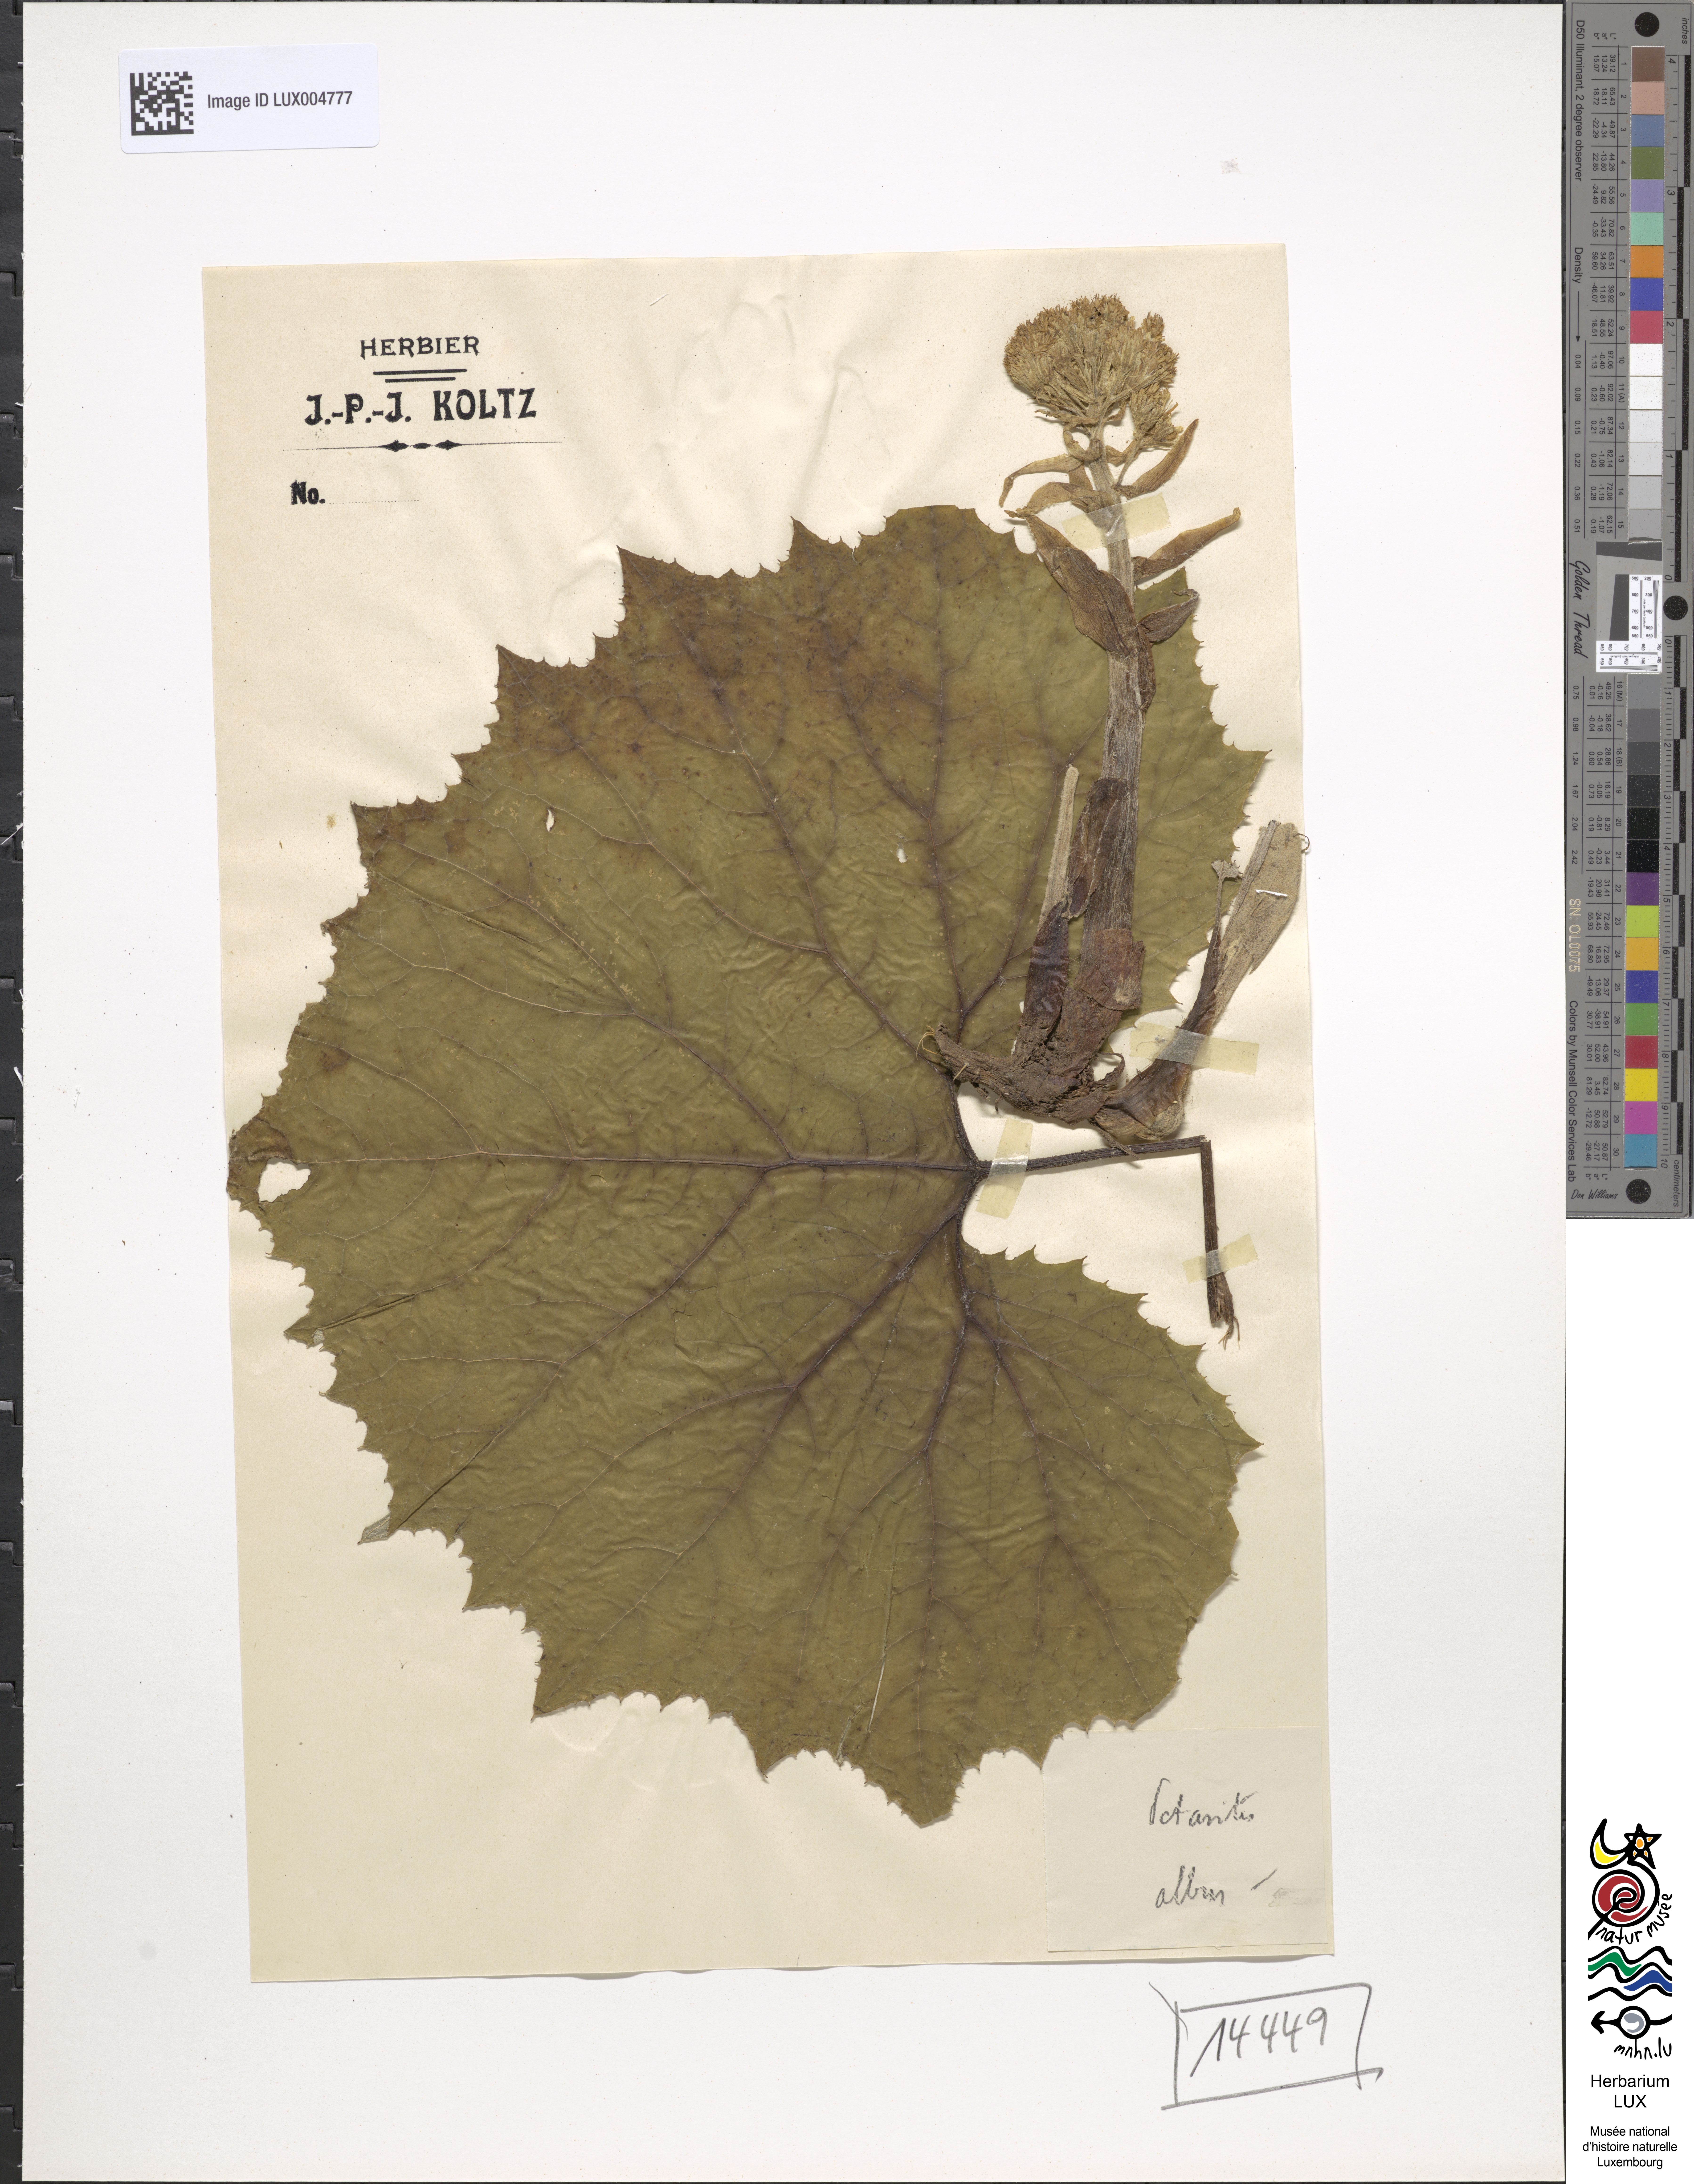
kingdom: Plantae
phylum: Tracheophyta
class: Magnoliopsida
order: Asterales
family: Asteraceae
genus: Petasites
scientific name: Petasites albus
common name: White butterbur
